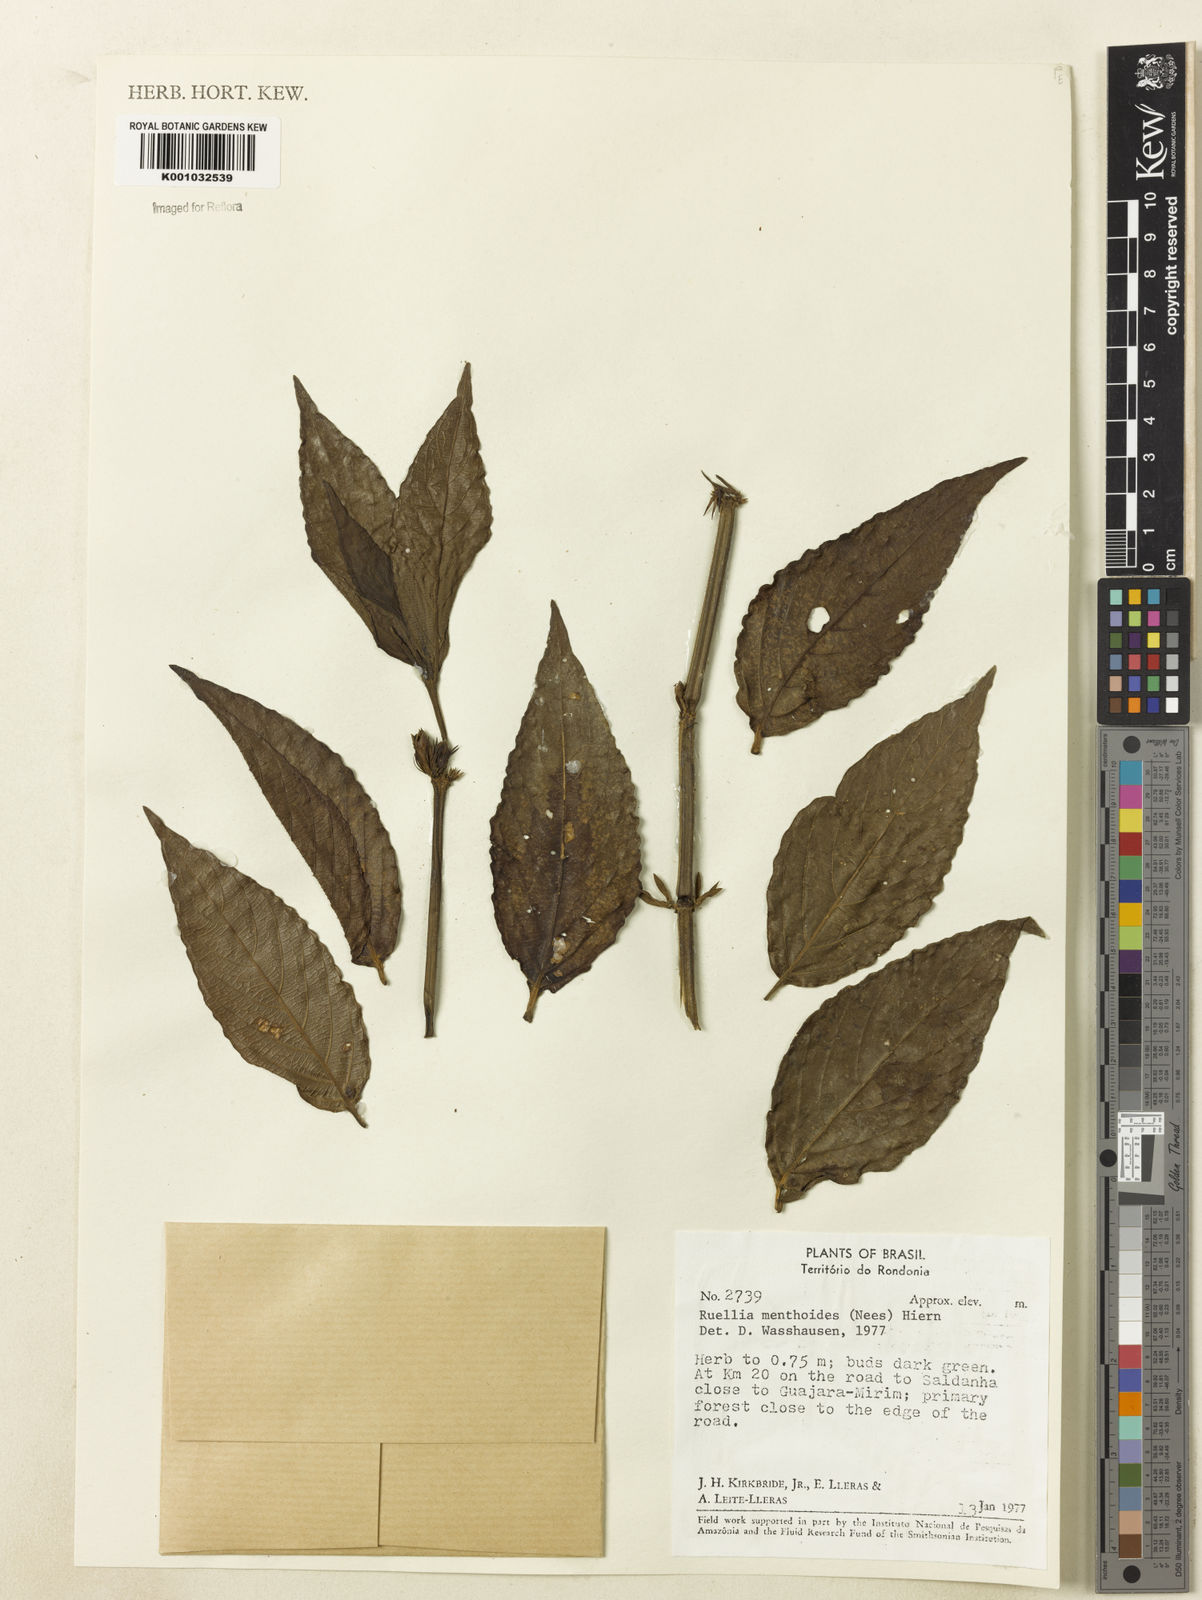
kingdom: Plantae
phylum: Tracheophyta
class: Magnoliopsida
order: Lamiales
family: Acanthaceae
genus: Ruellia
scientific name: Ruellia menthoides
